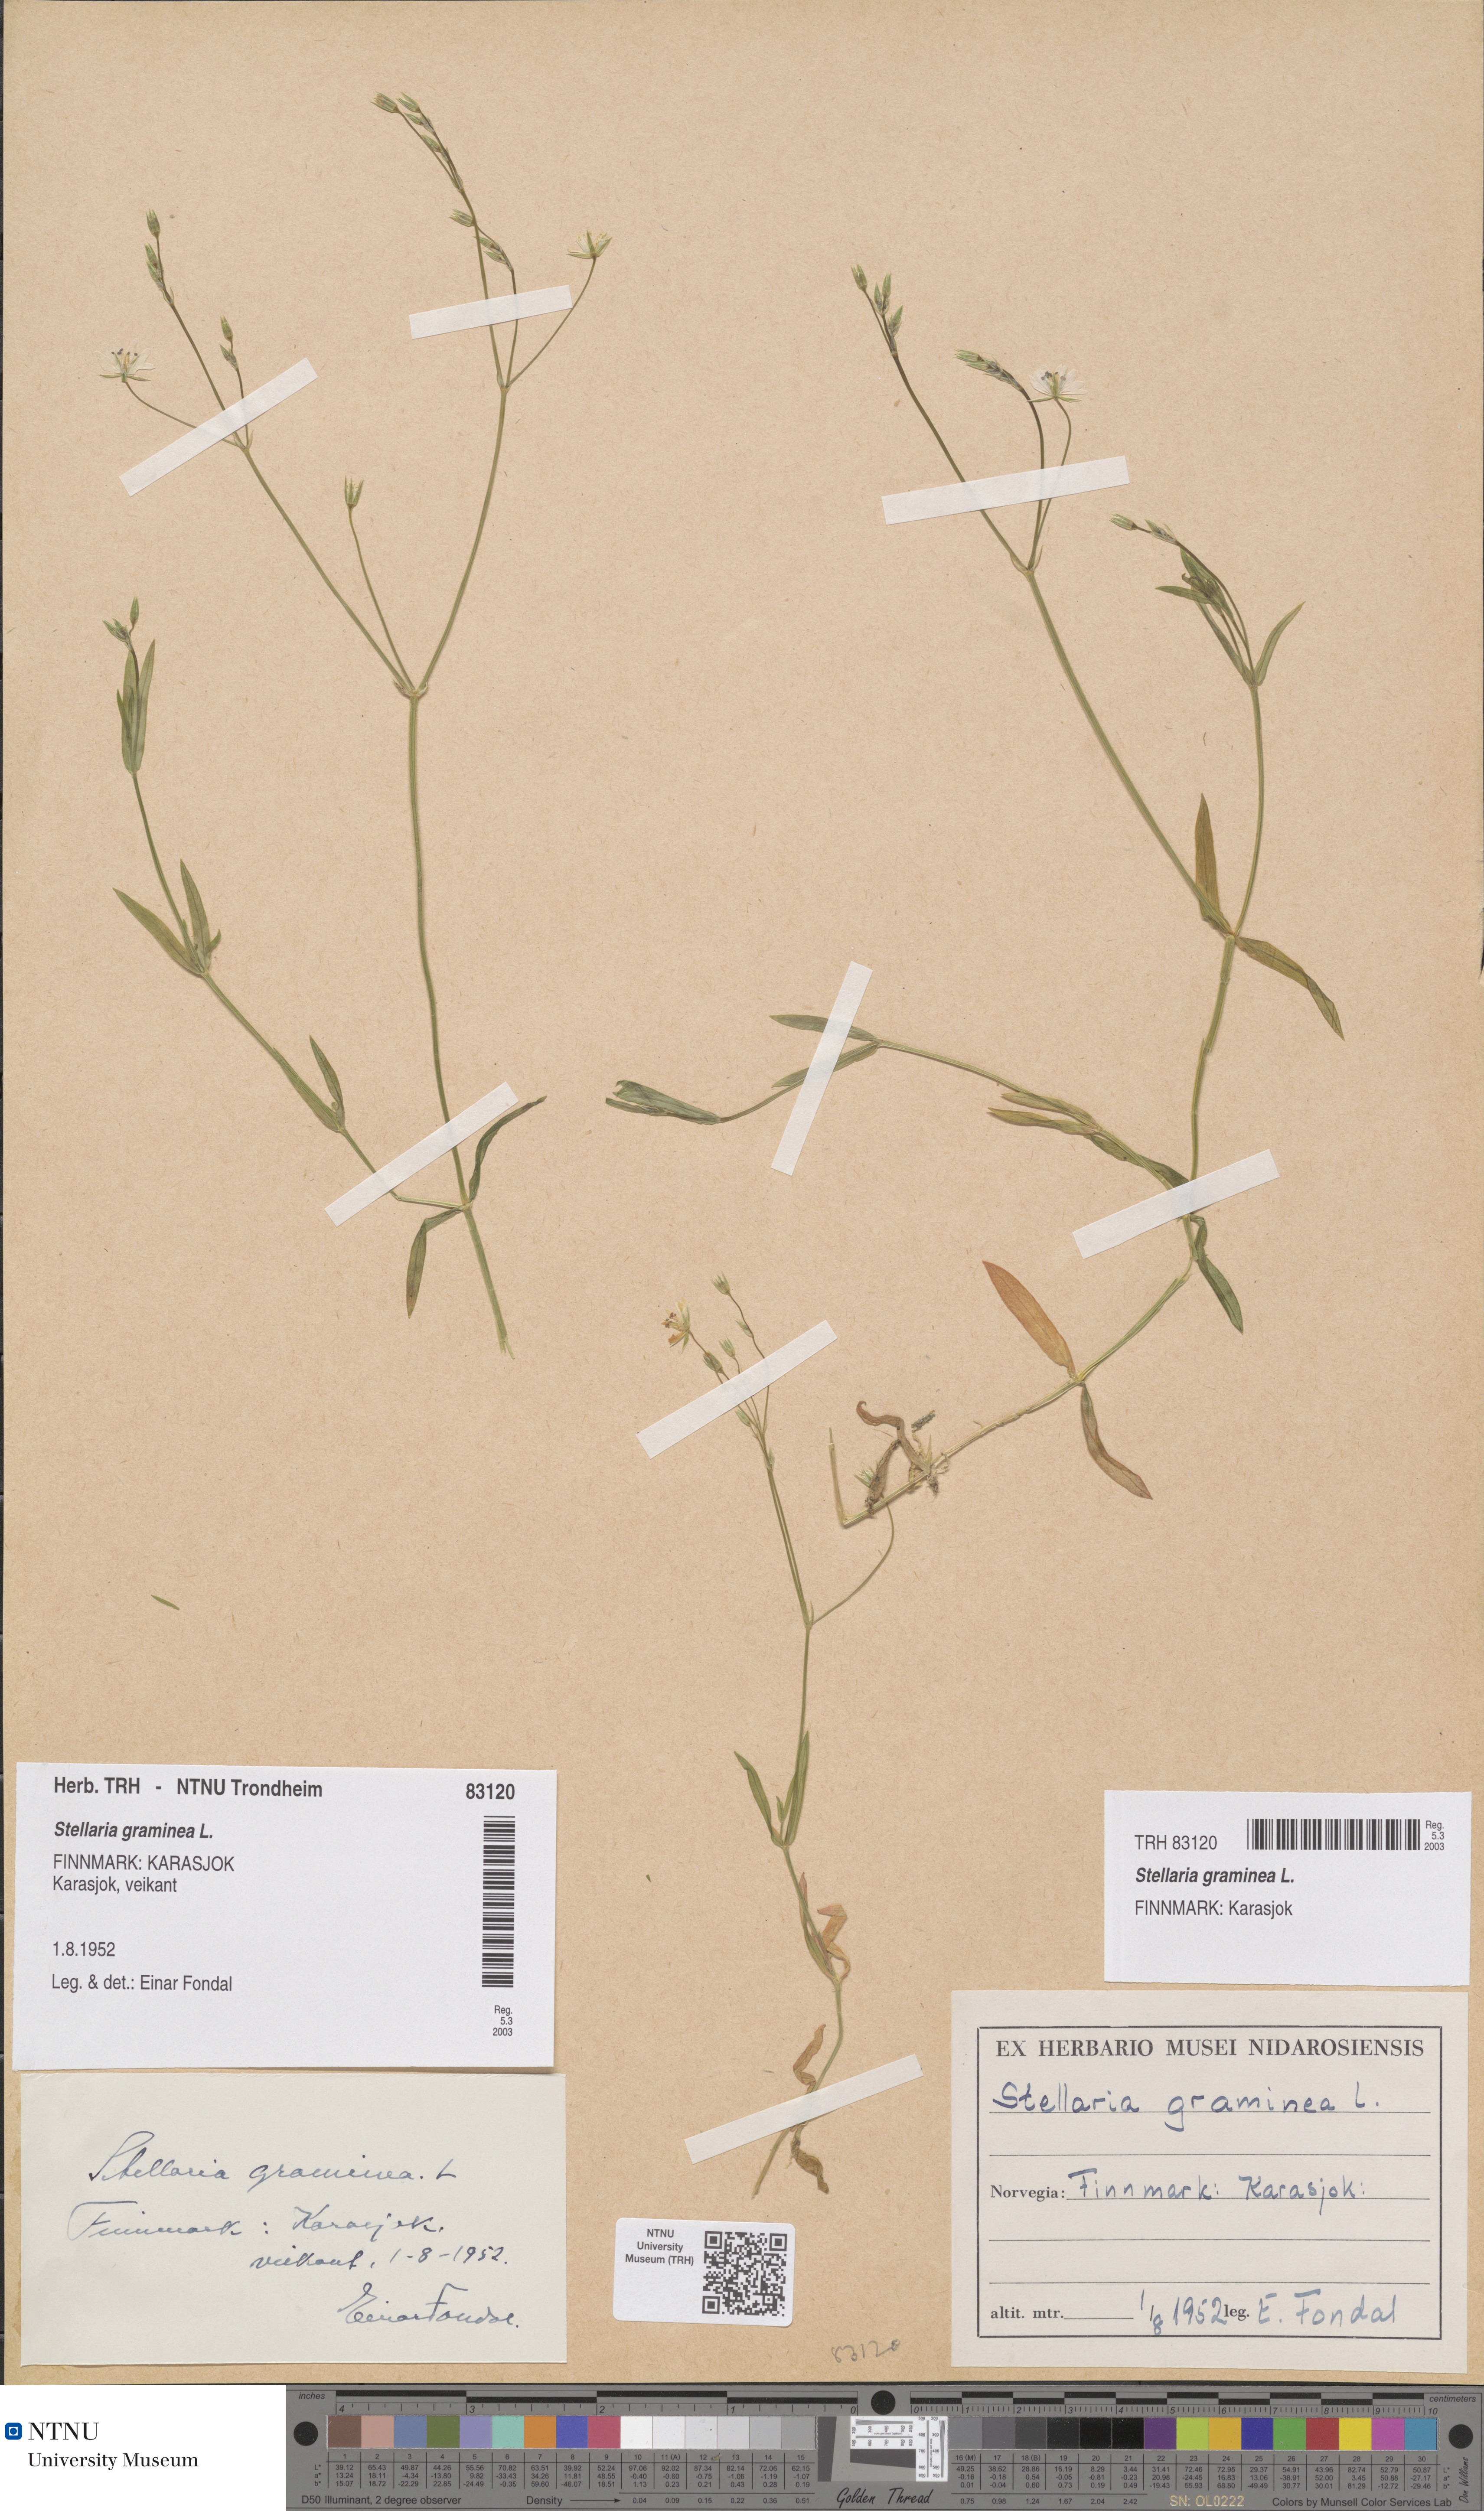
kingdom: Plantae
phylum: Tracheophyta
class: Magnoliopsida
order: Caryophyllales
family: Caryophyllaceae
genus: Stellaria
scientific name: Stellaria graminea
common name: Grass-like starwort
